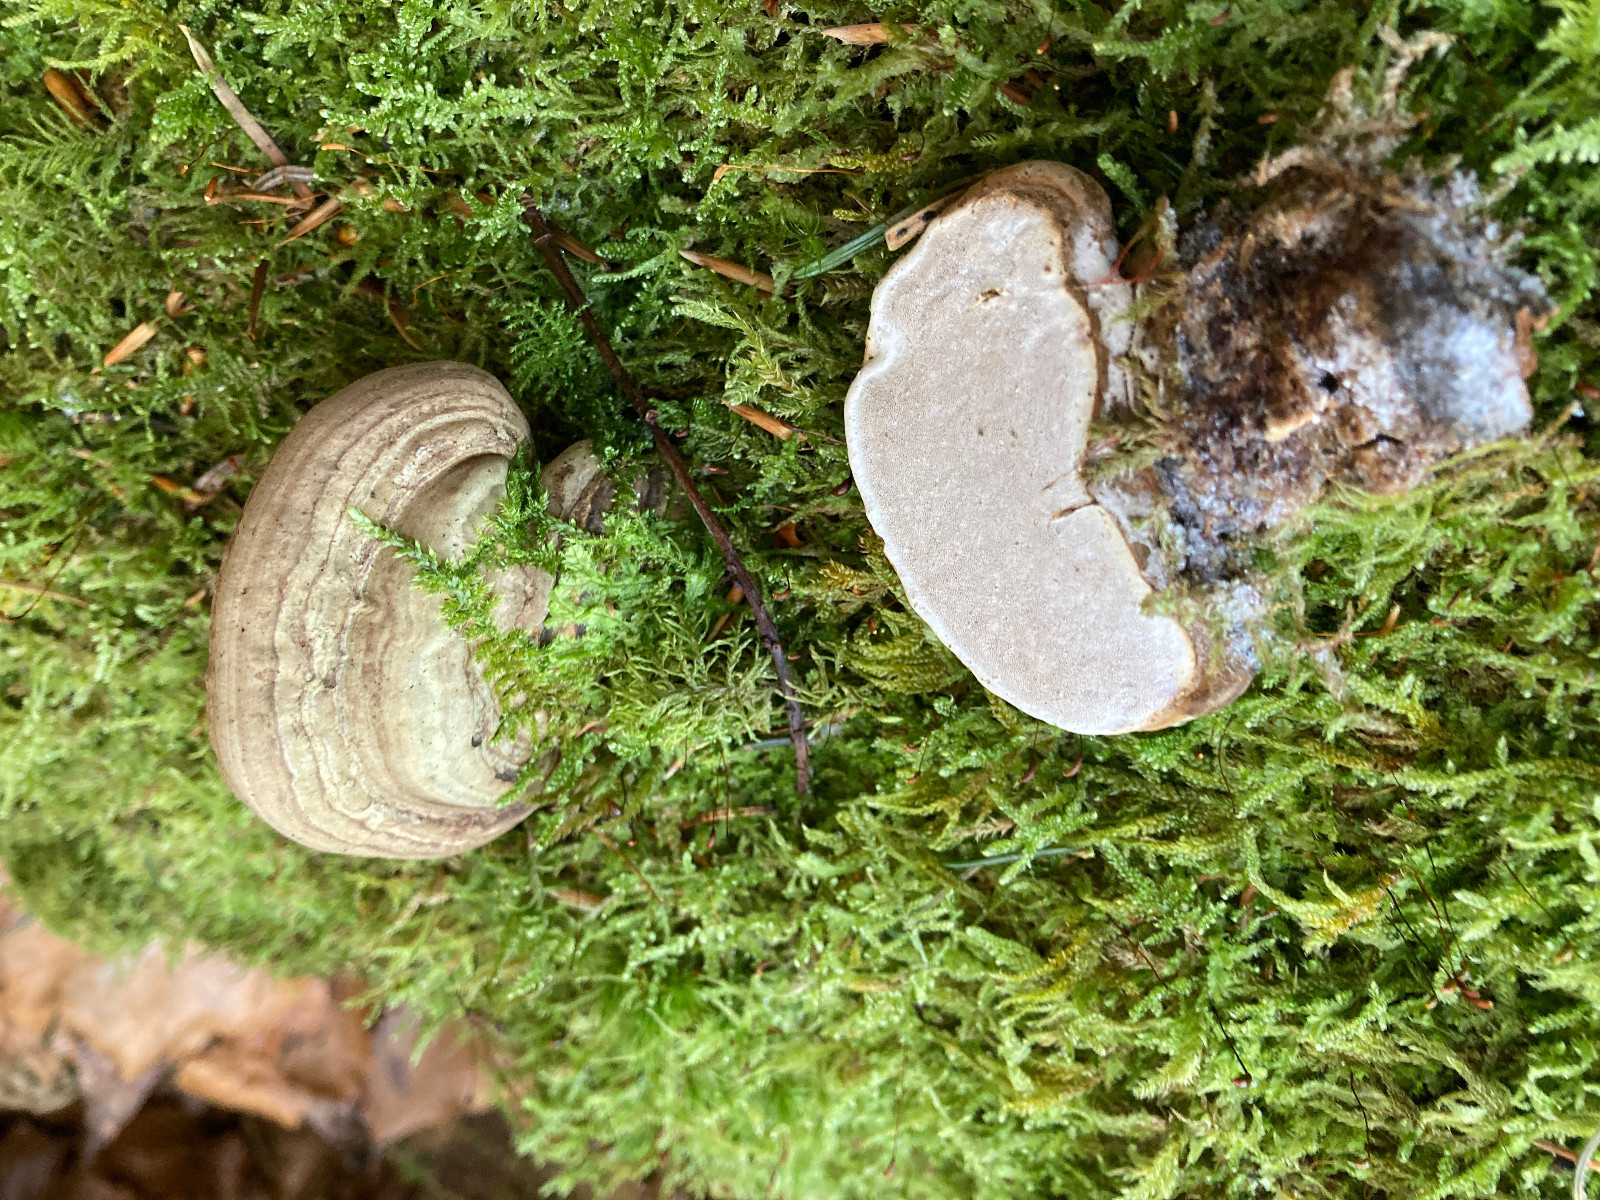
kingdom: Fungi
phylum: Basidiomycota
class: Agaricomycetes
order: Polyporales
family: Polyporaceae
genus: Ganoderma
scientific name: Ganoderma applanatum
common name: flad lakporesvamp
